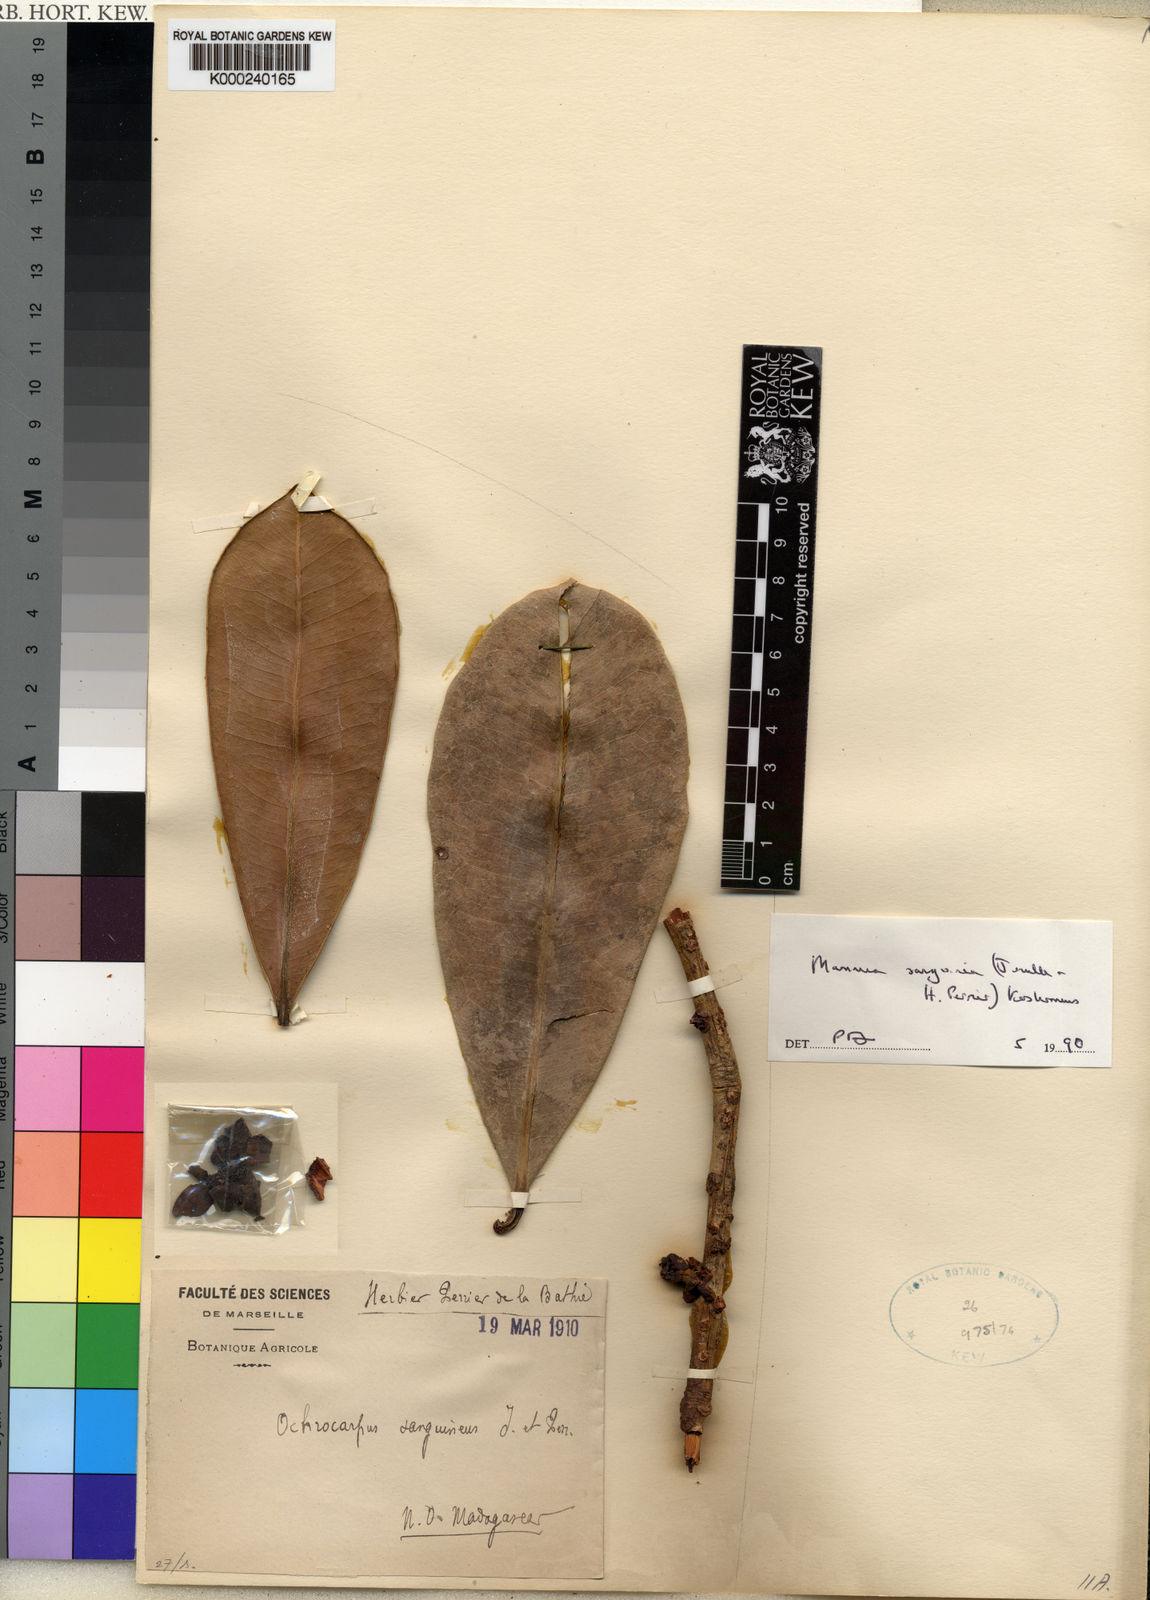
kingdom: Plantae
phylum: Tracheophyta
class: Magnoliopsida
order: Malpighiales
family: Calophyllaceae
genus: Mammea
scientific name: Mammea sanguinea
